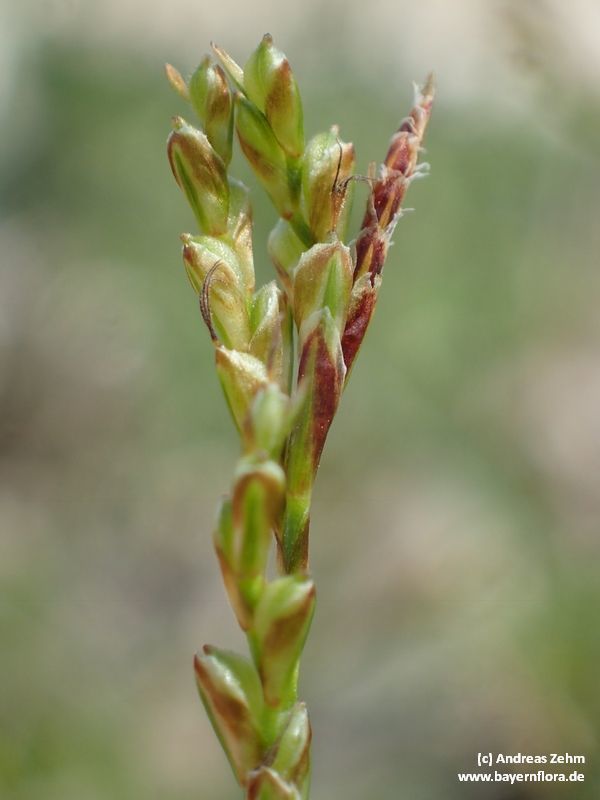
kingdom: Plantae
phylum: Tracheophyta
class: Liliopsida
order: Poales
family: Cyperaceae
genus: Carex
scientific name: Carex ornithopoda
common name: Bird's-foot sedge
